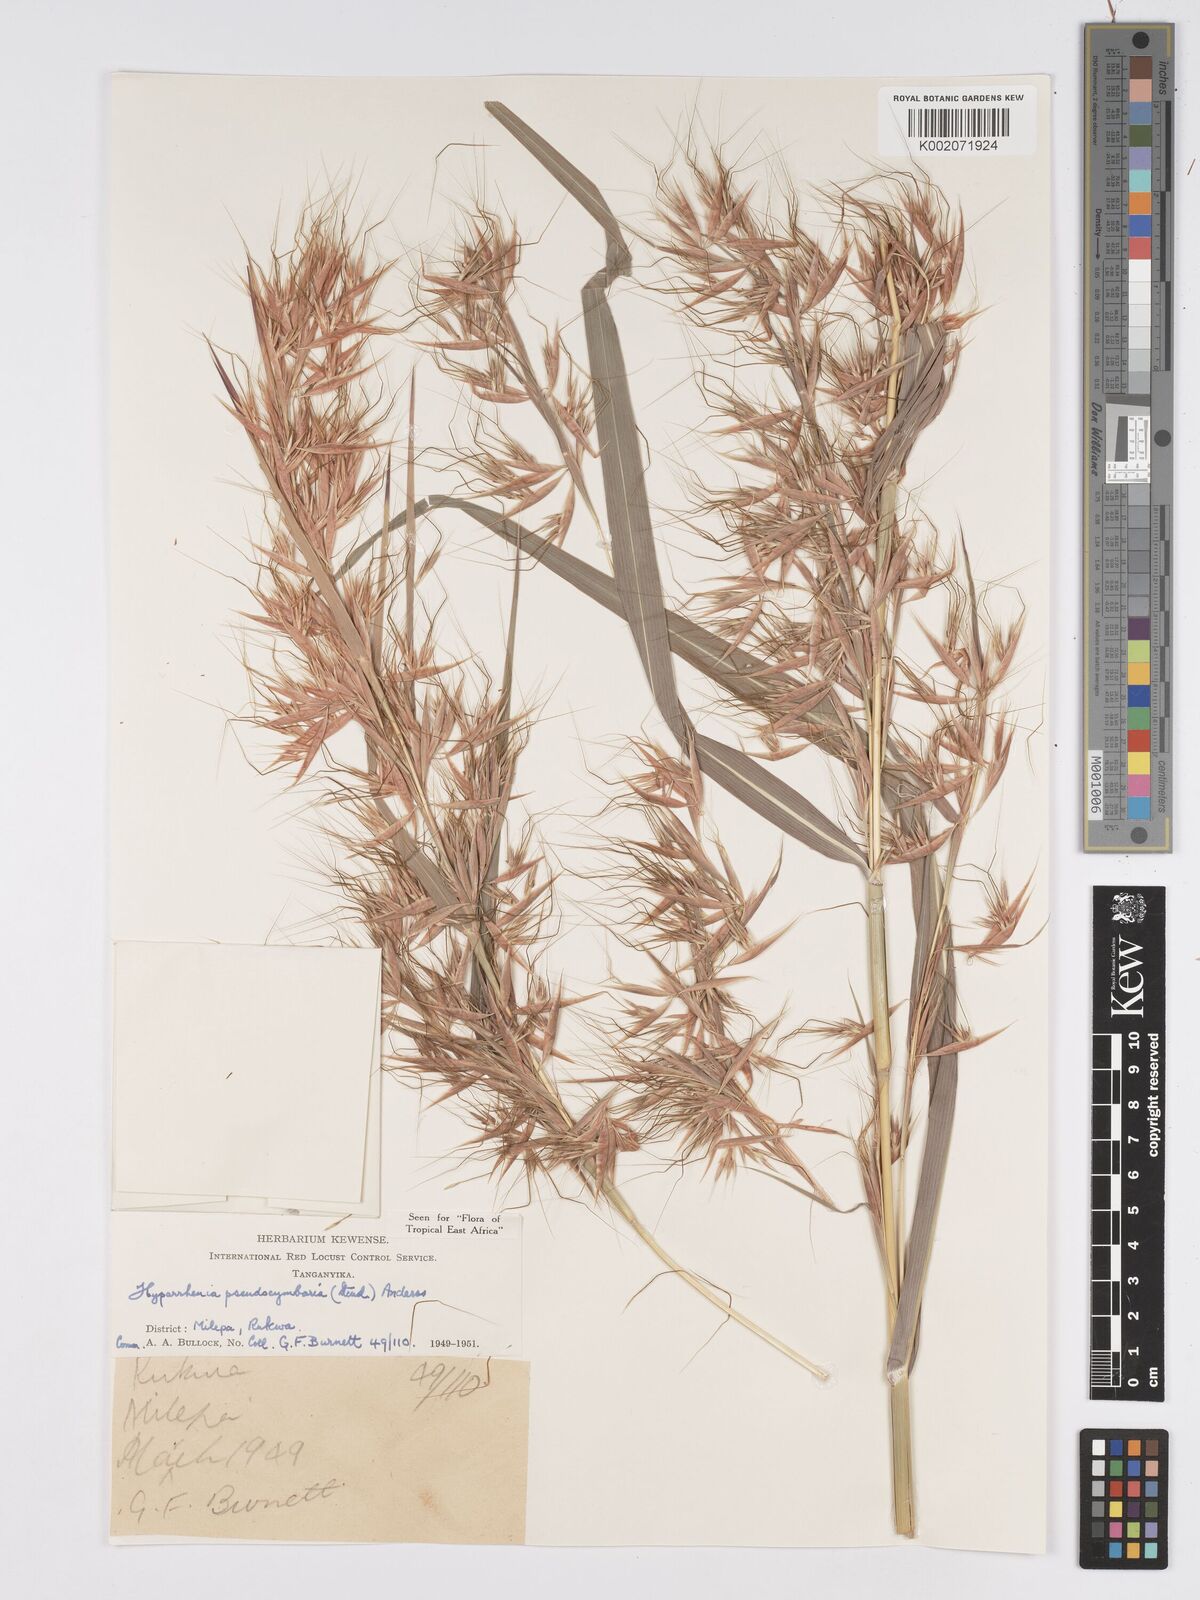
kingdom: Plantae
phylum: Tracheophyta
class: Liliopsida
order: Poales
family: Poaceae
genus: Hyparrhenia
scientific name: Hyparrhenia anthistirioides
